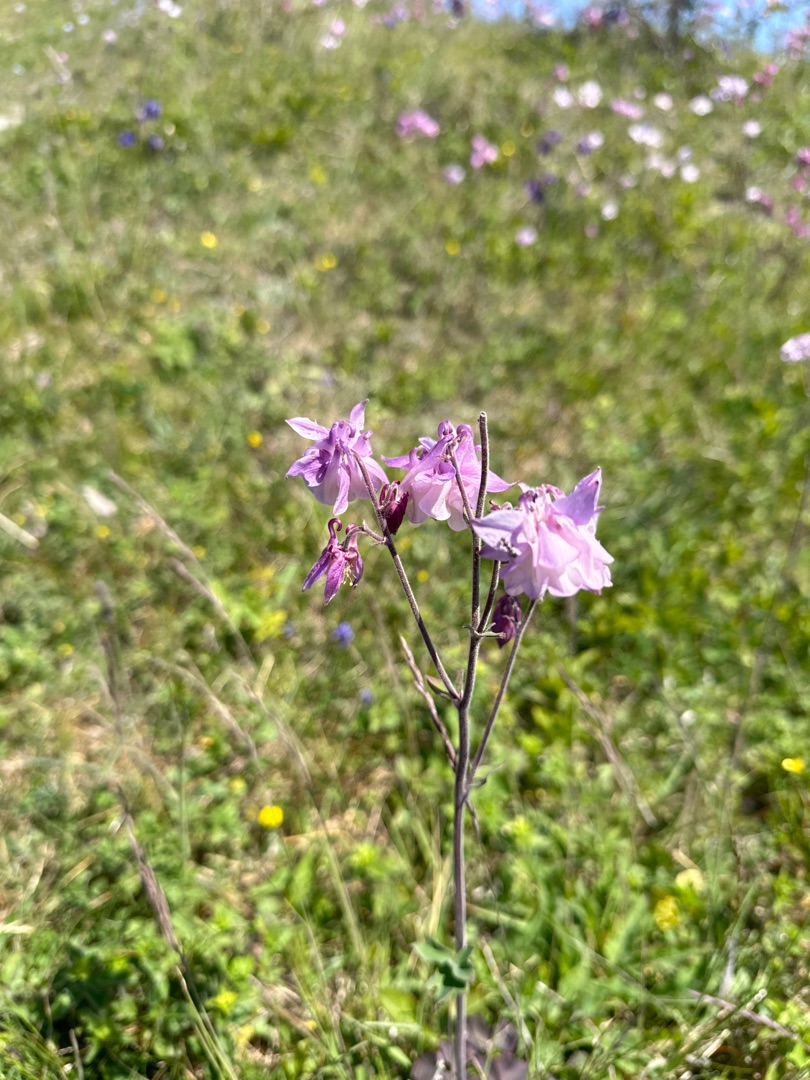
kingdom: Plantae
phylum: Tracheophyta
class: Magnoliopsida
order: Ranunculales
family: Ranunculaceae
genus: Aquilegia
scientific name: Aquilegia vulgaris
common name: Akeleje
